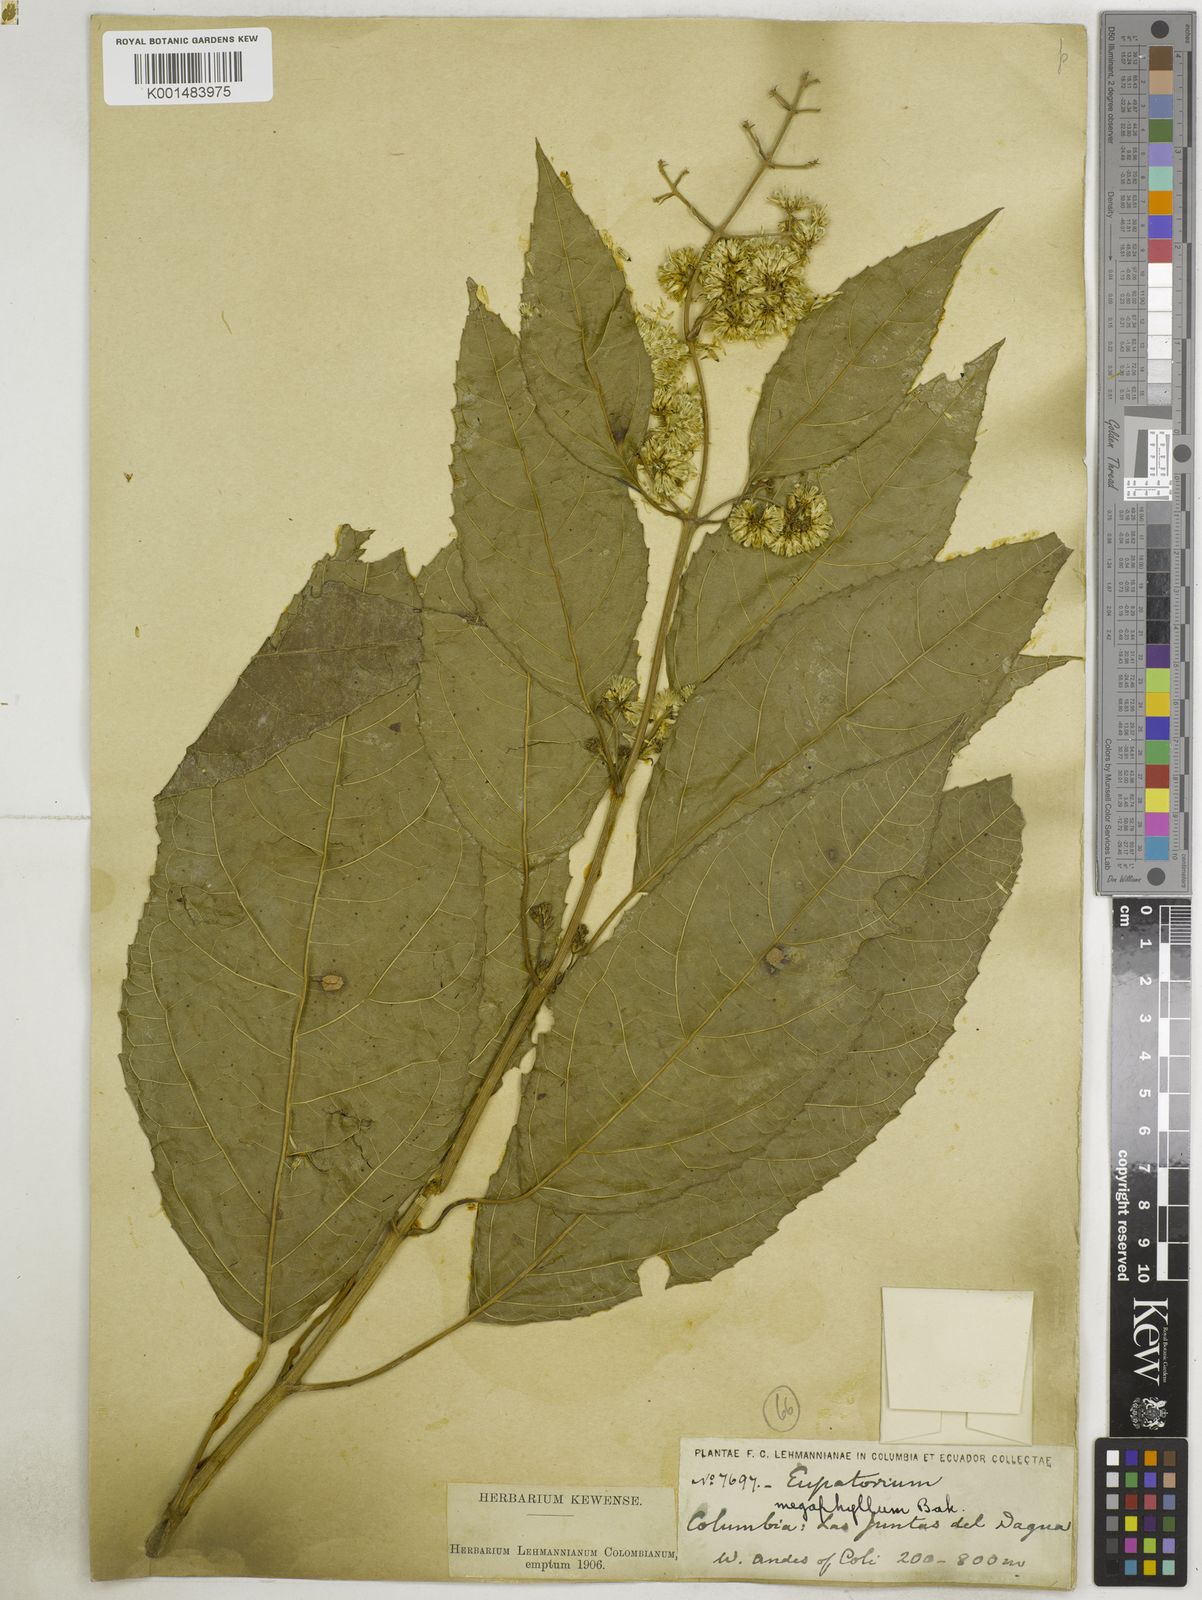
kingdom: Plantae
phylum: Tracheophyta
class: Magnoliopsida
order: Asterales
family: Asteraceae
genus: Critonia
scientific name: Critonia morifolia
